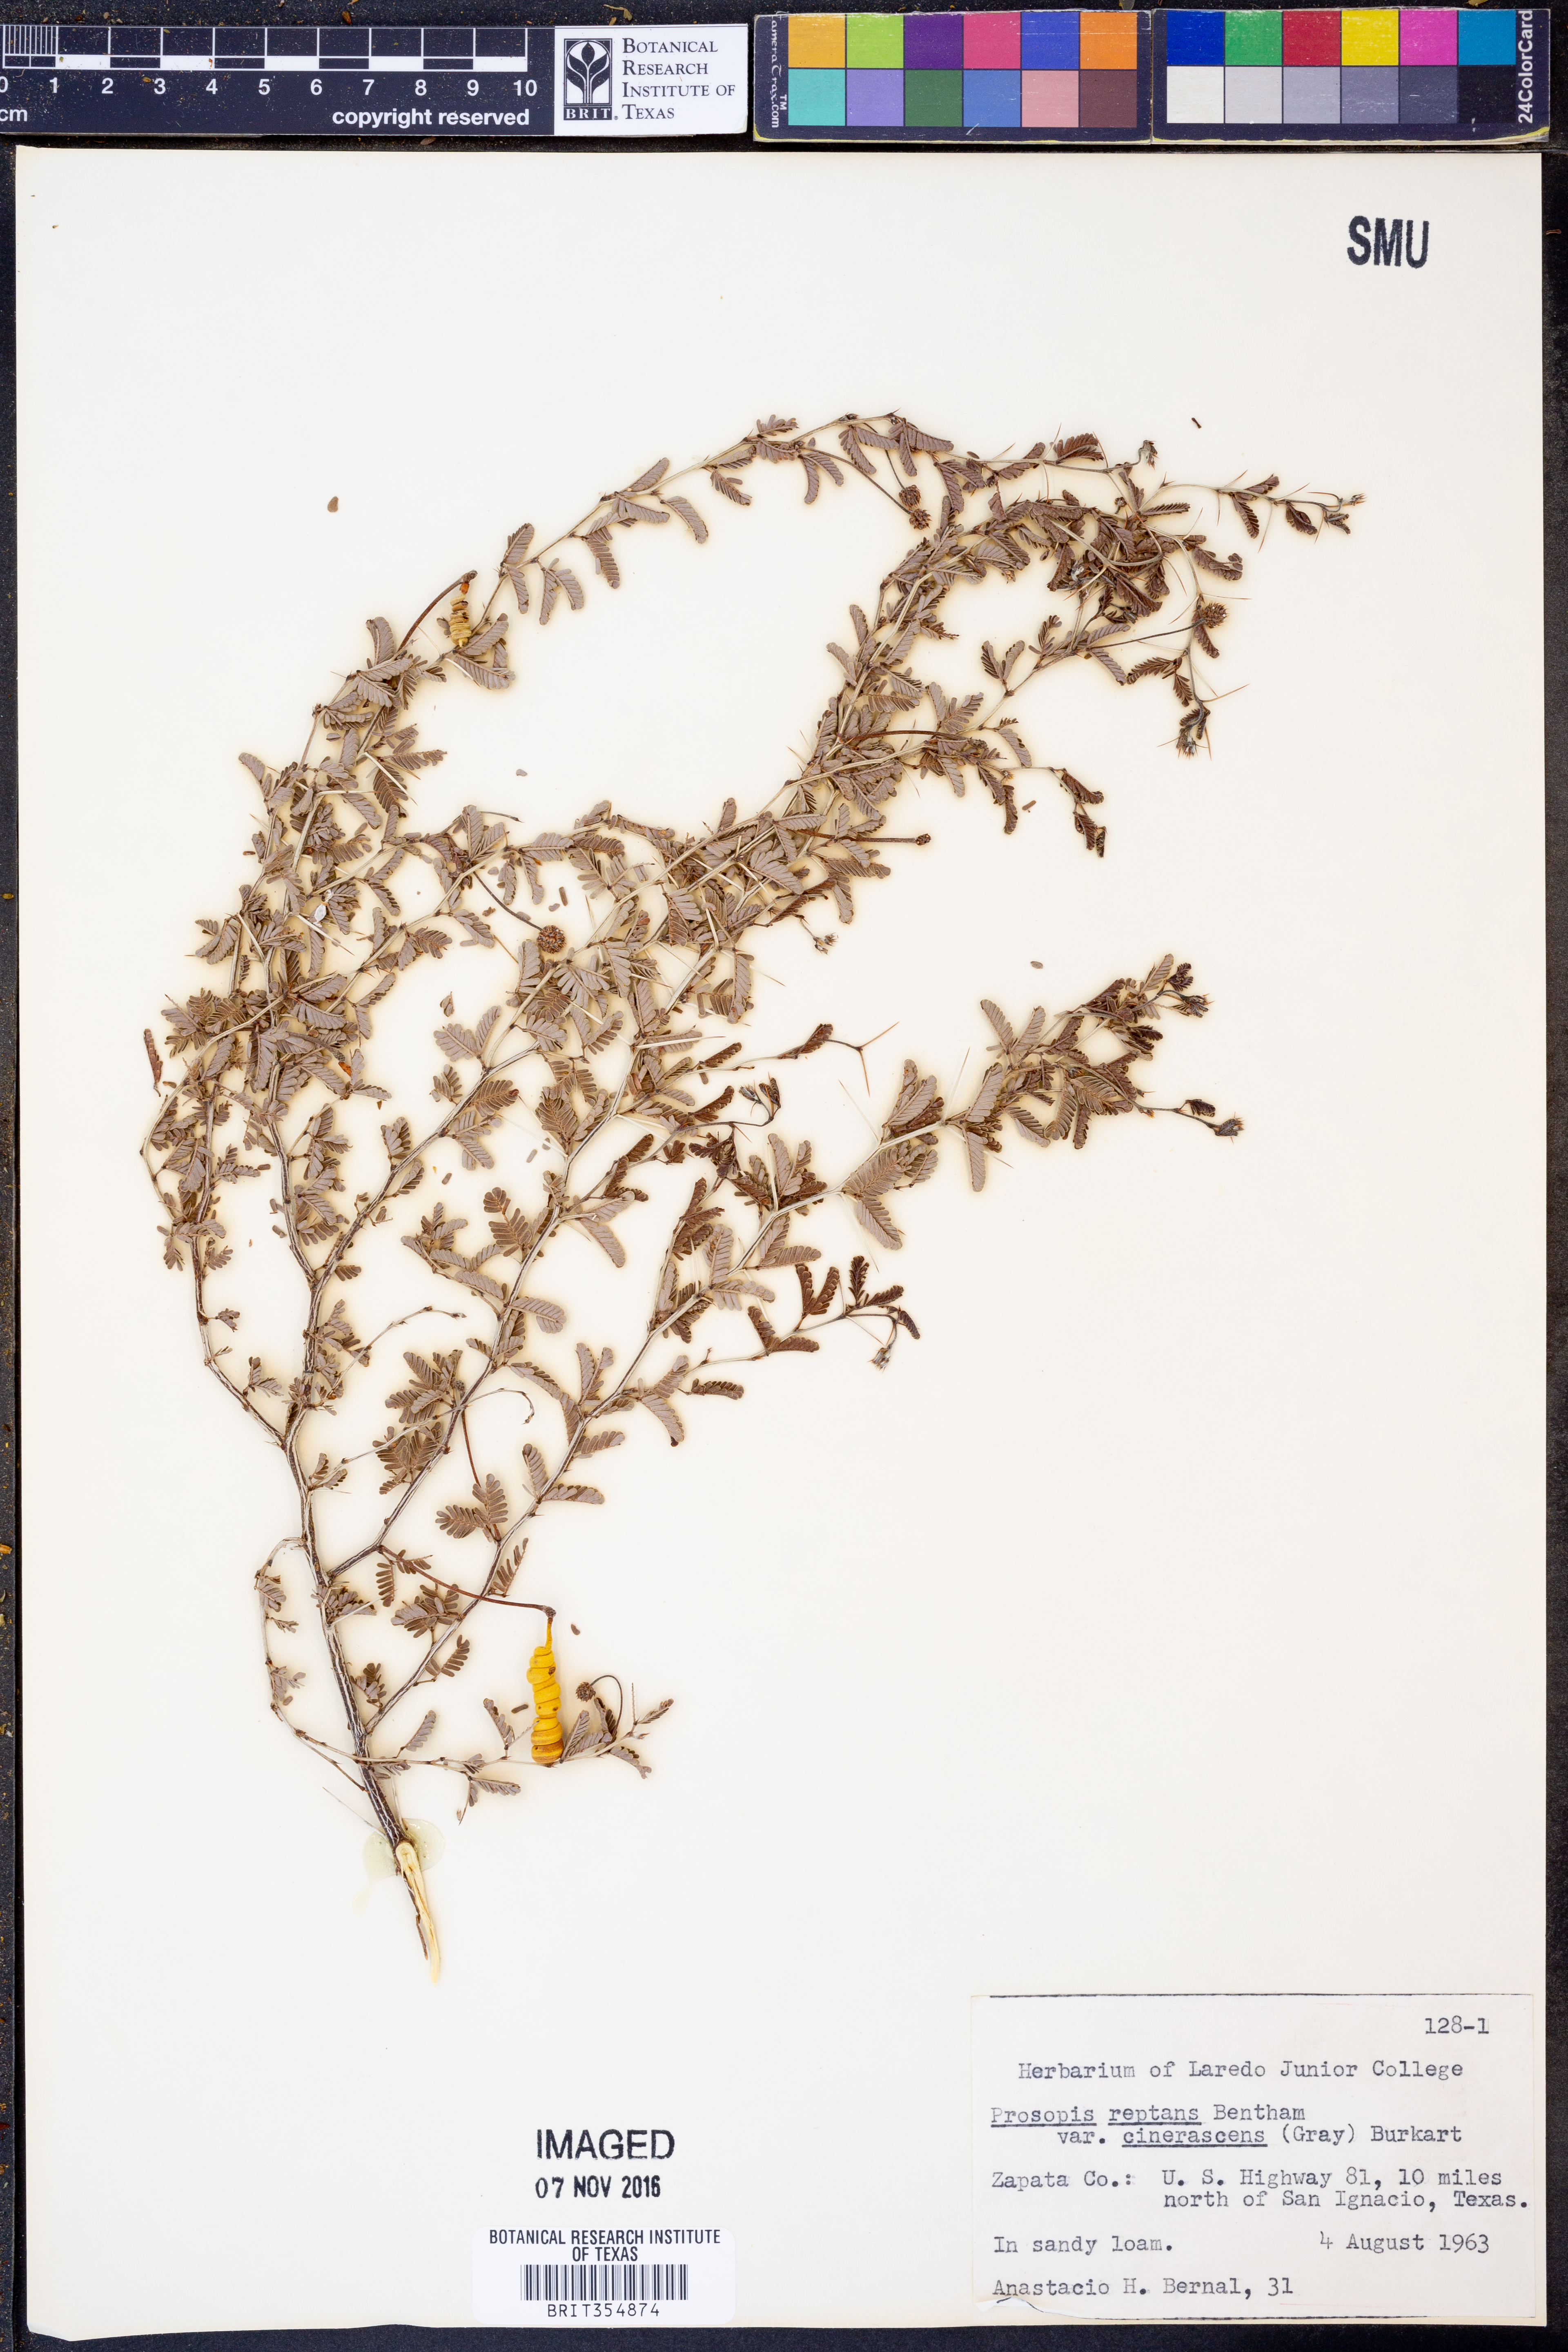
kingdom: Plantae
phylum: Tracheophyta
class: Magnoliopsida
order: Fabales
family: Fabaceae
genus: Prosopis
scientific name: Prosopis cinerascens
